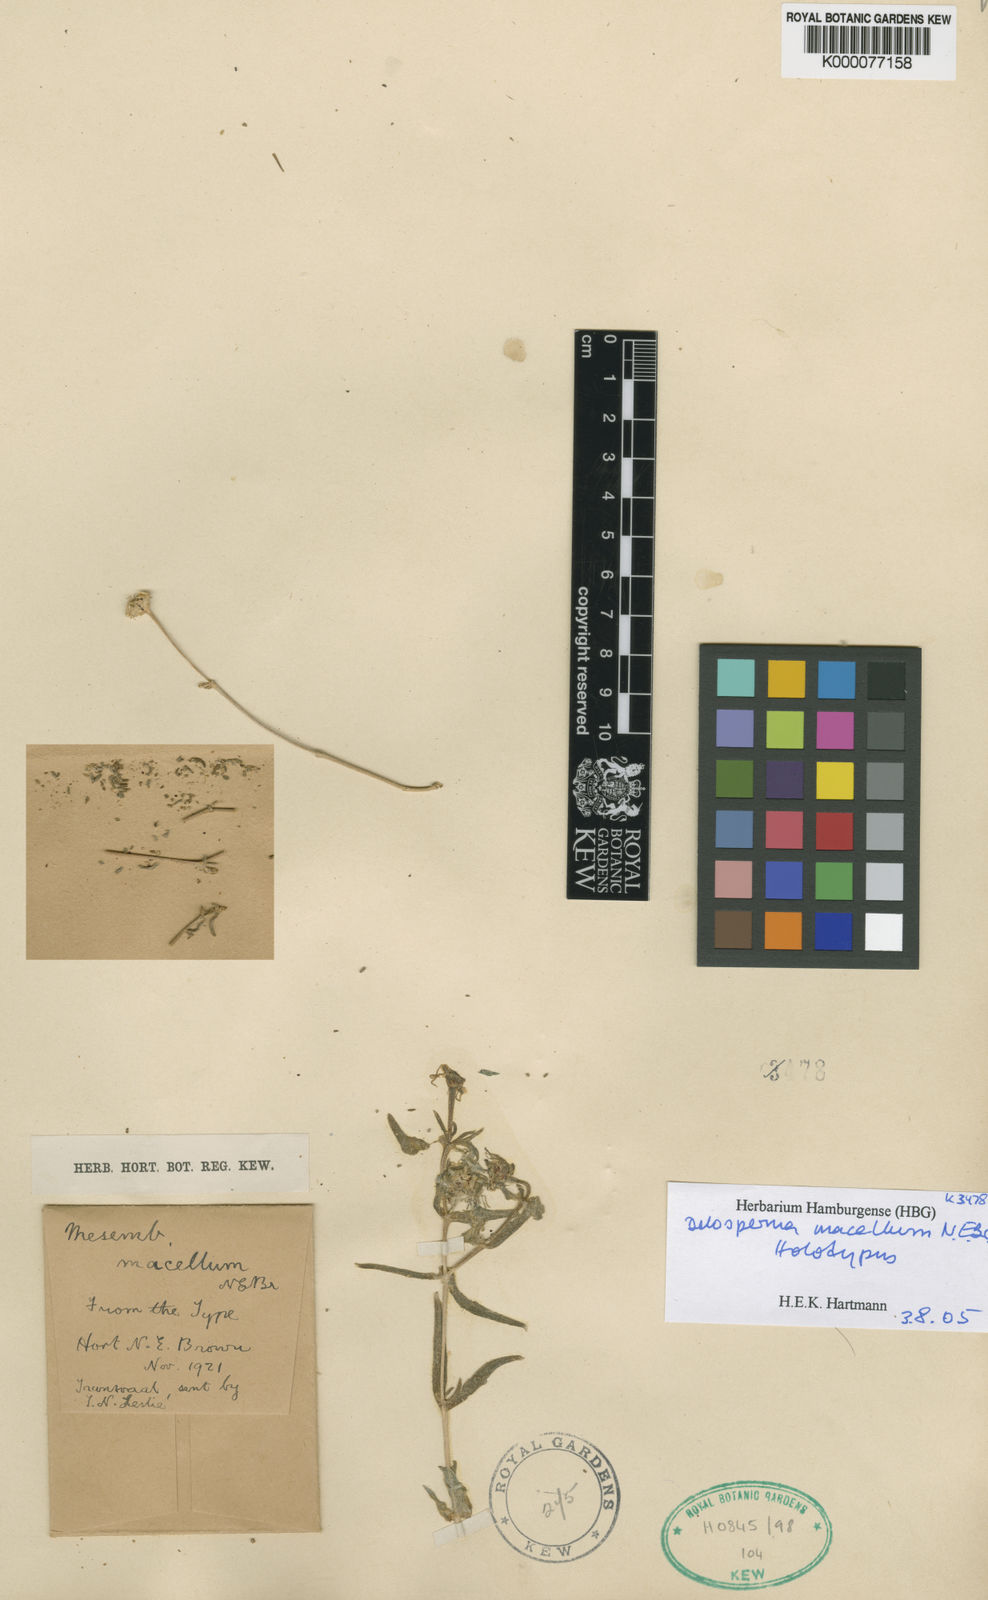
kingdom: Plantae
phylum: Tracheophyta
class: Magnoliopsida
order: Caryophyllales
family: Aizoaceae
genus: Delosperma
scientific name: Delosperma macellum
